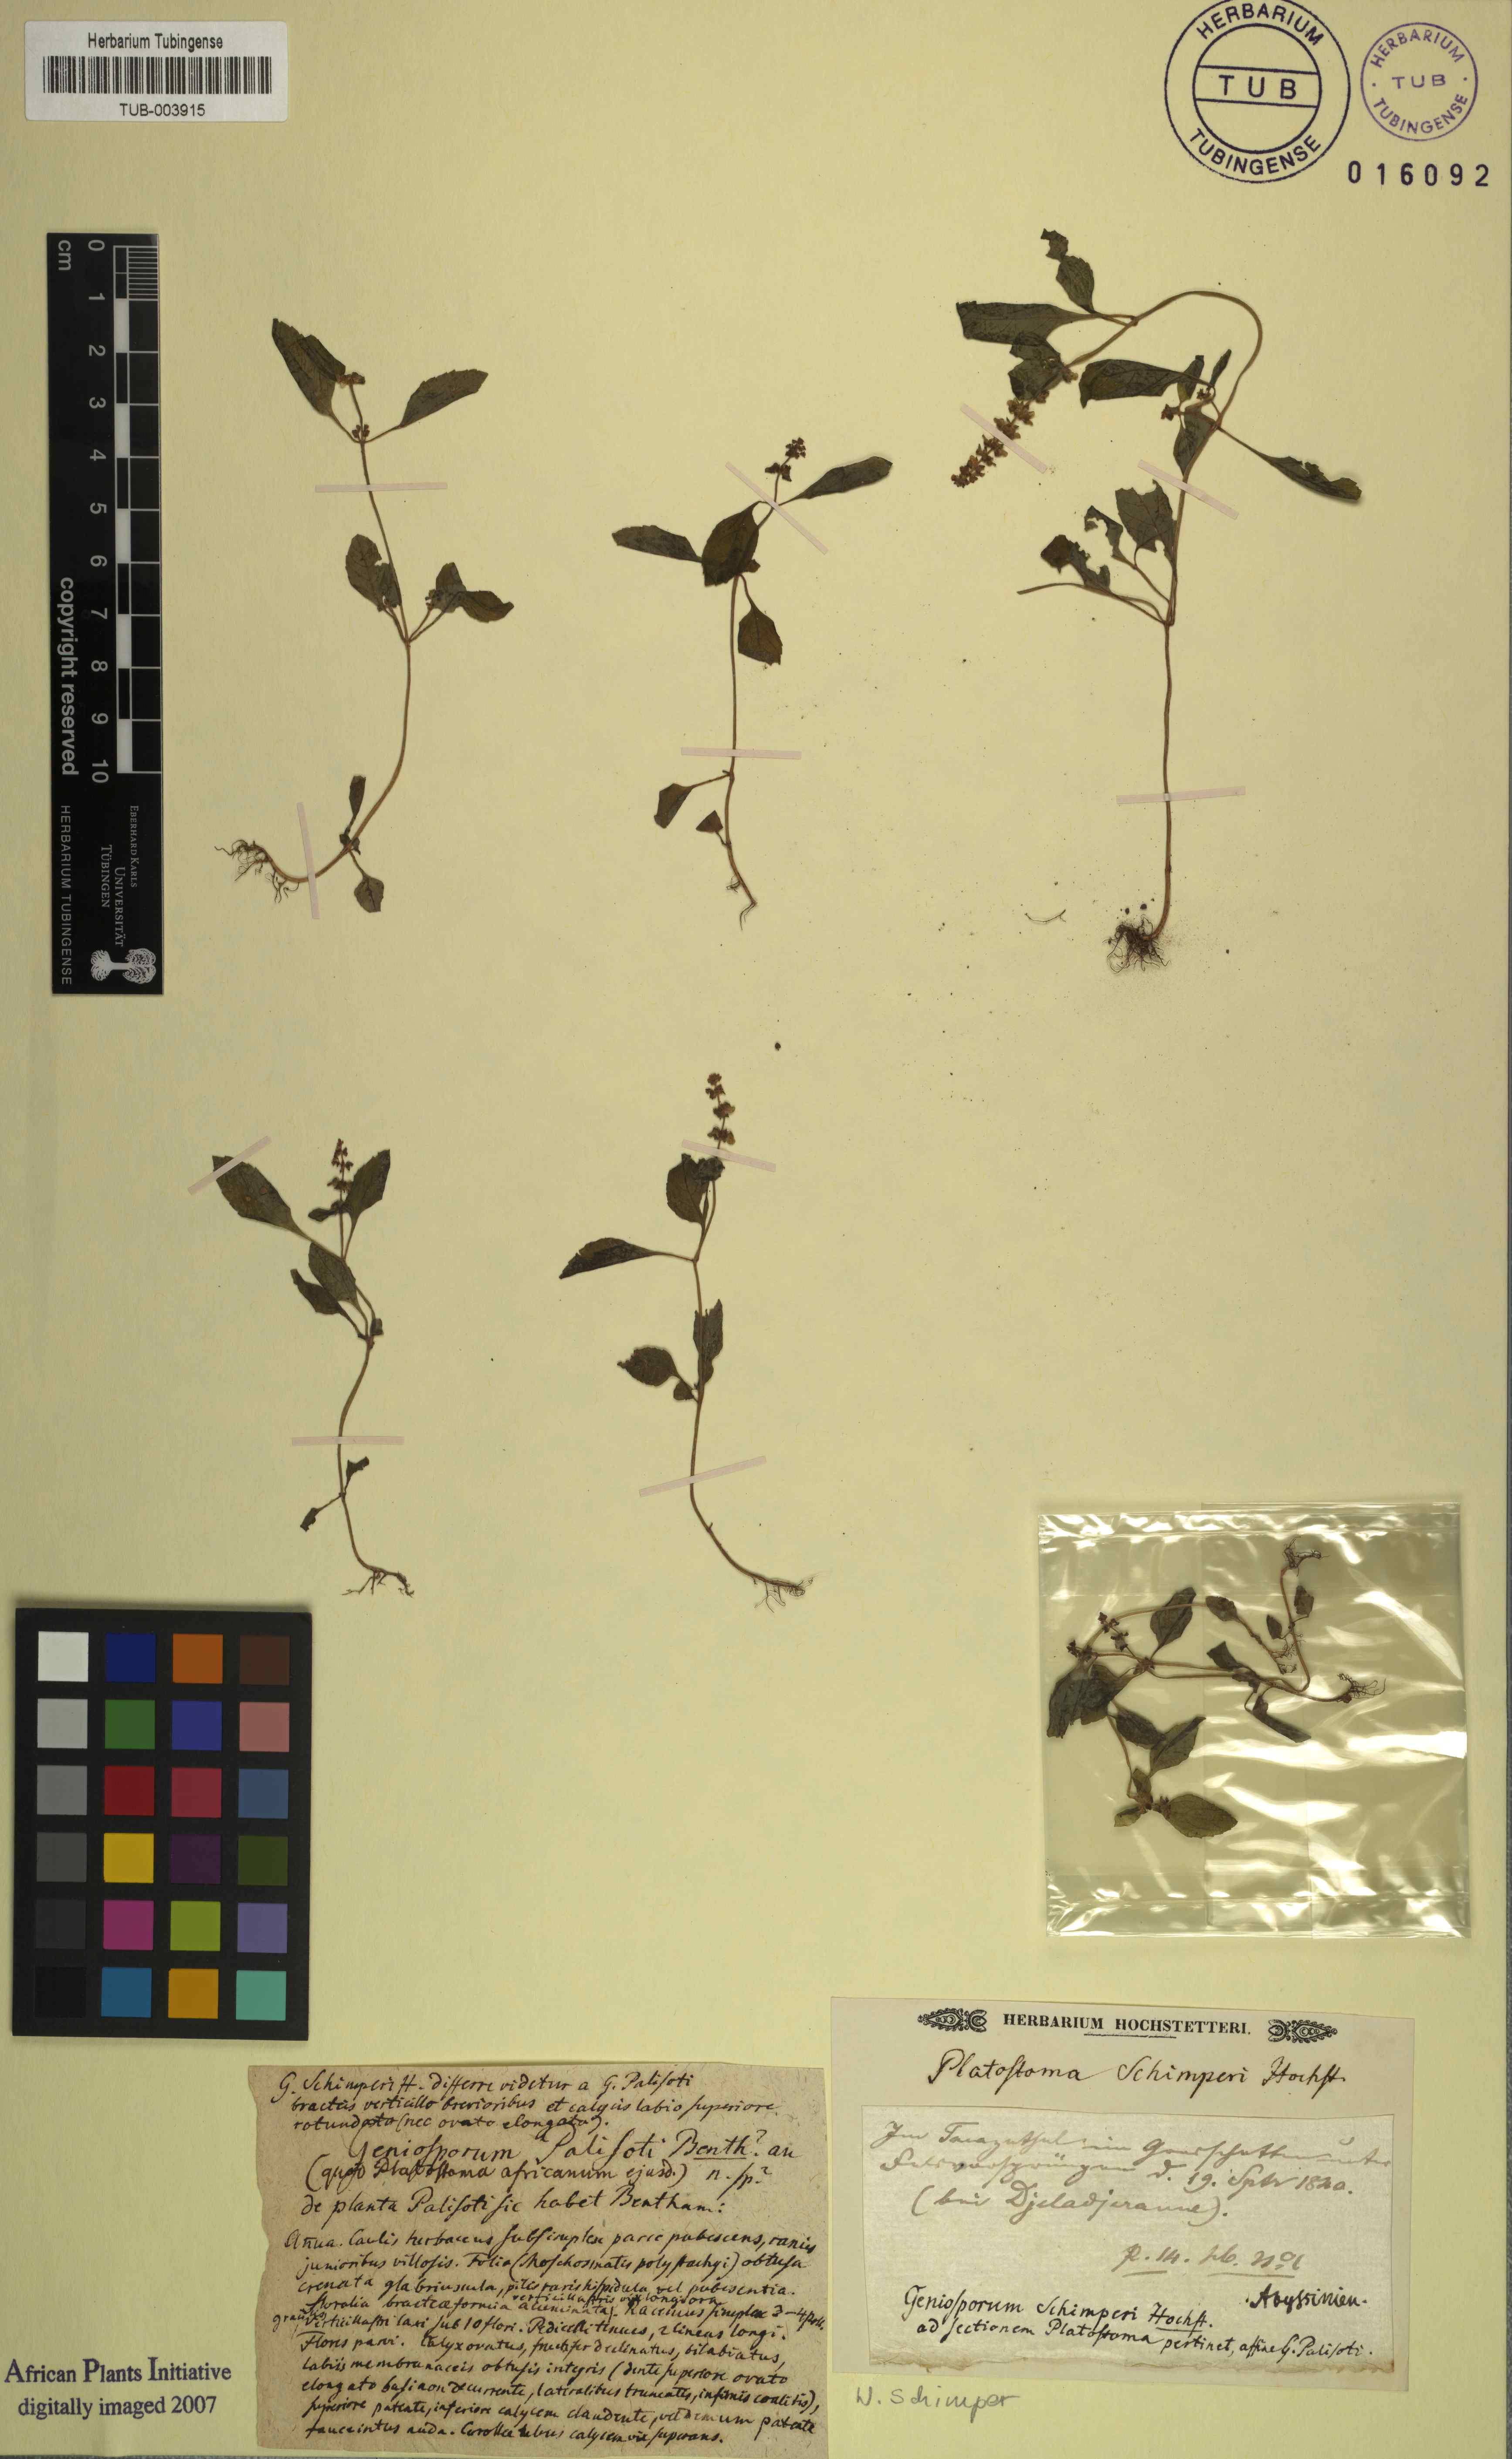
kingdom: Plantae
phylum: Tracheophyta
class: Magnoliopsida
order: Lamiales
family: Lamiaceae
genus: Platostoma
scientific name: Platostoma
